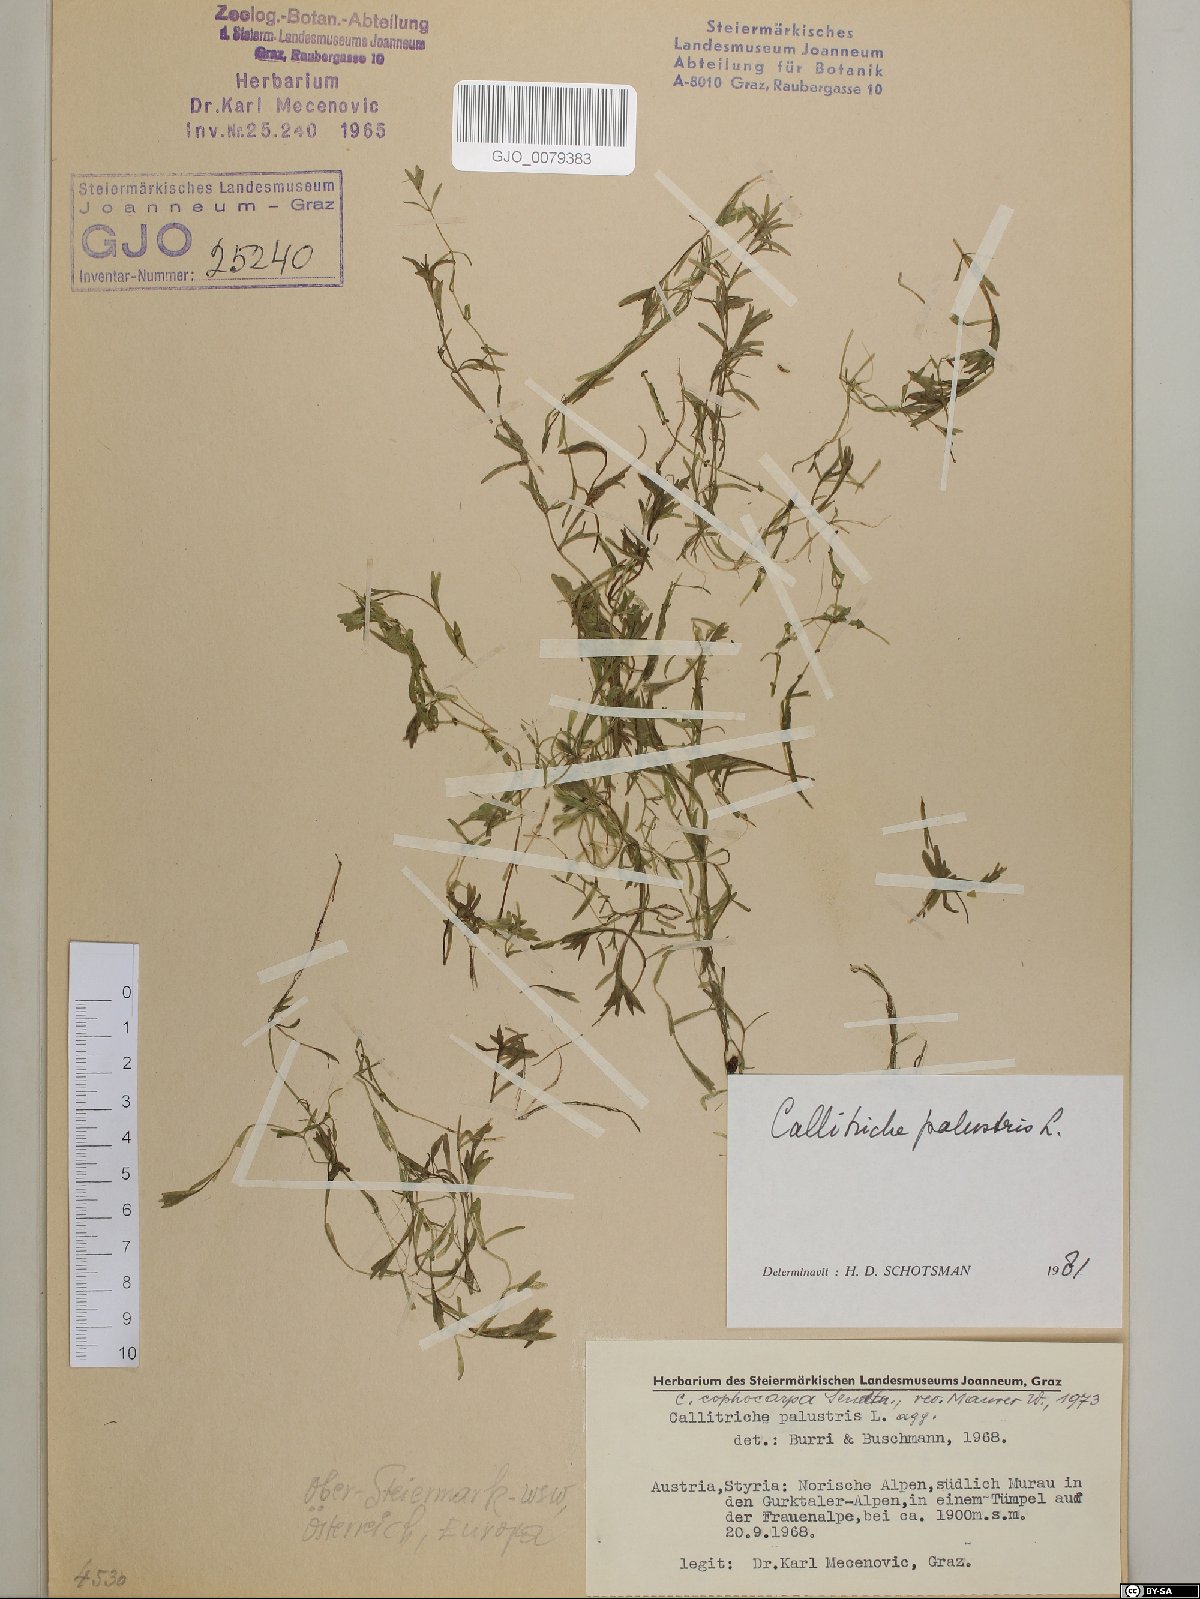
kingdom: Plantae
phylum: Tracheophyta
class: Magnoliopsida
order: Lamiales
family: Plantaginaceae
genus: Callitriche
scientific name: Callitriche palustris
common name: Spring water-starwort
